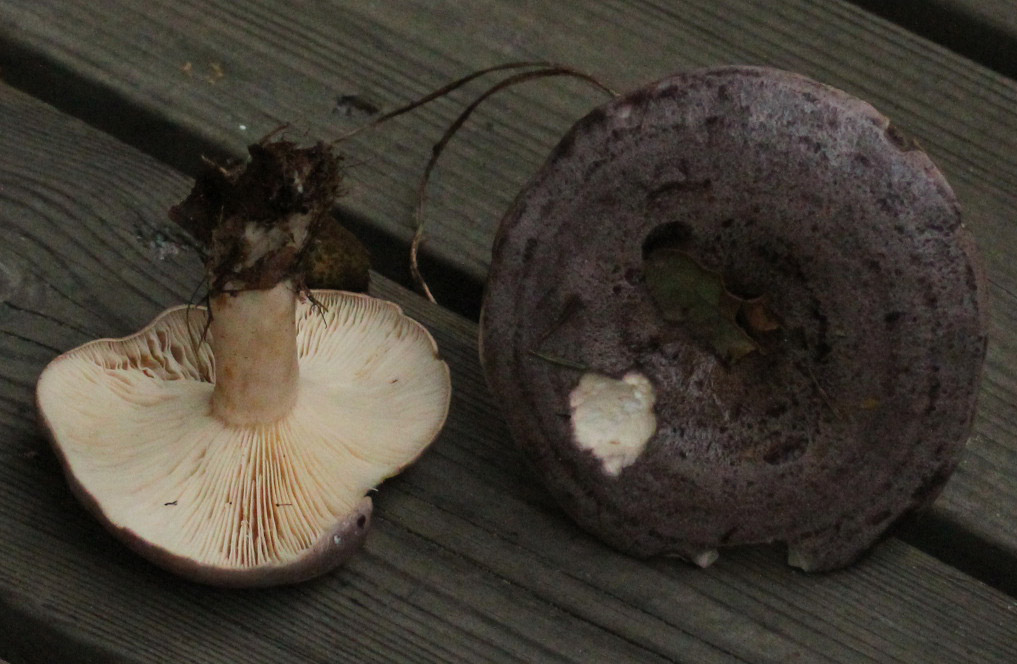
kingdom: Fungi
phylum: Basidiomycota
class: Agaricomycetes
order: Russulales
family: Russulaceae
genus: Lactarius
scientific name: Lactarius trivialis
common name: nordisk mælkehat
